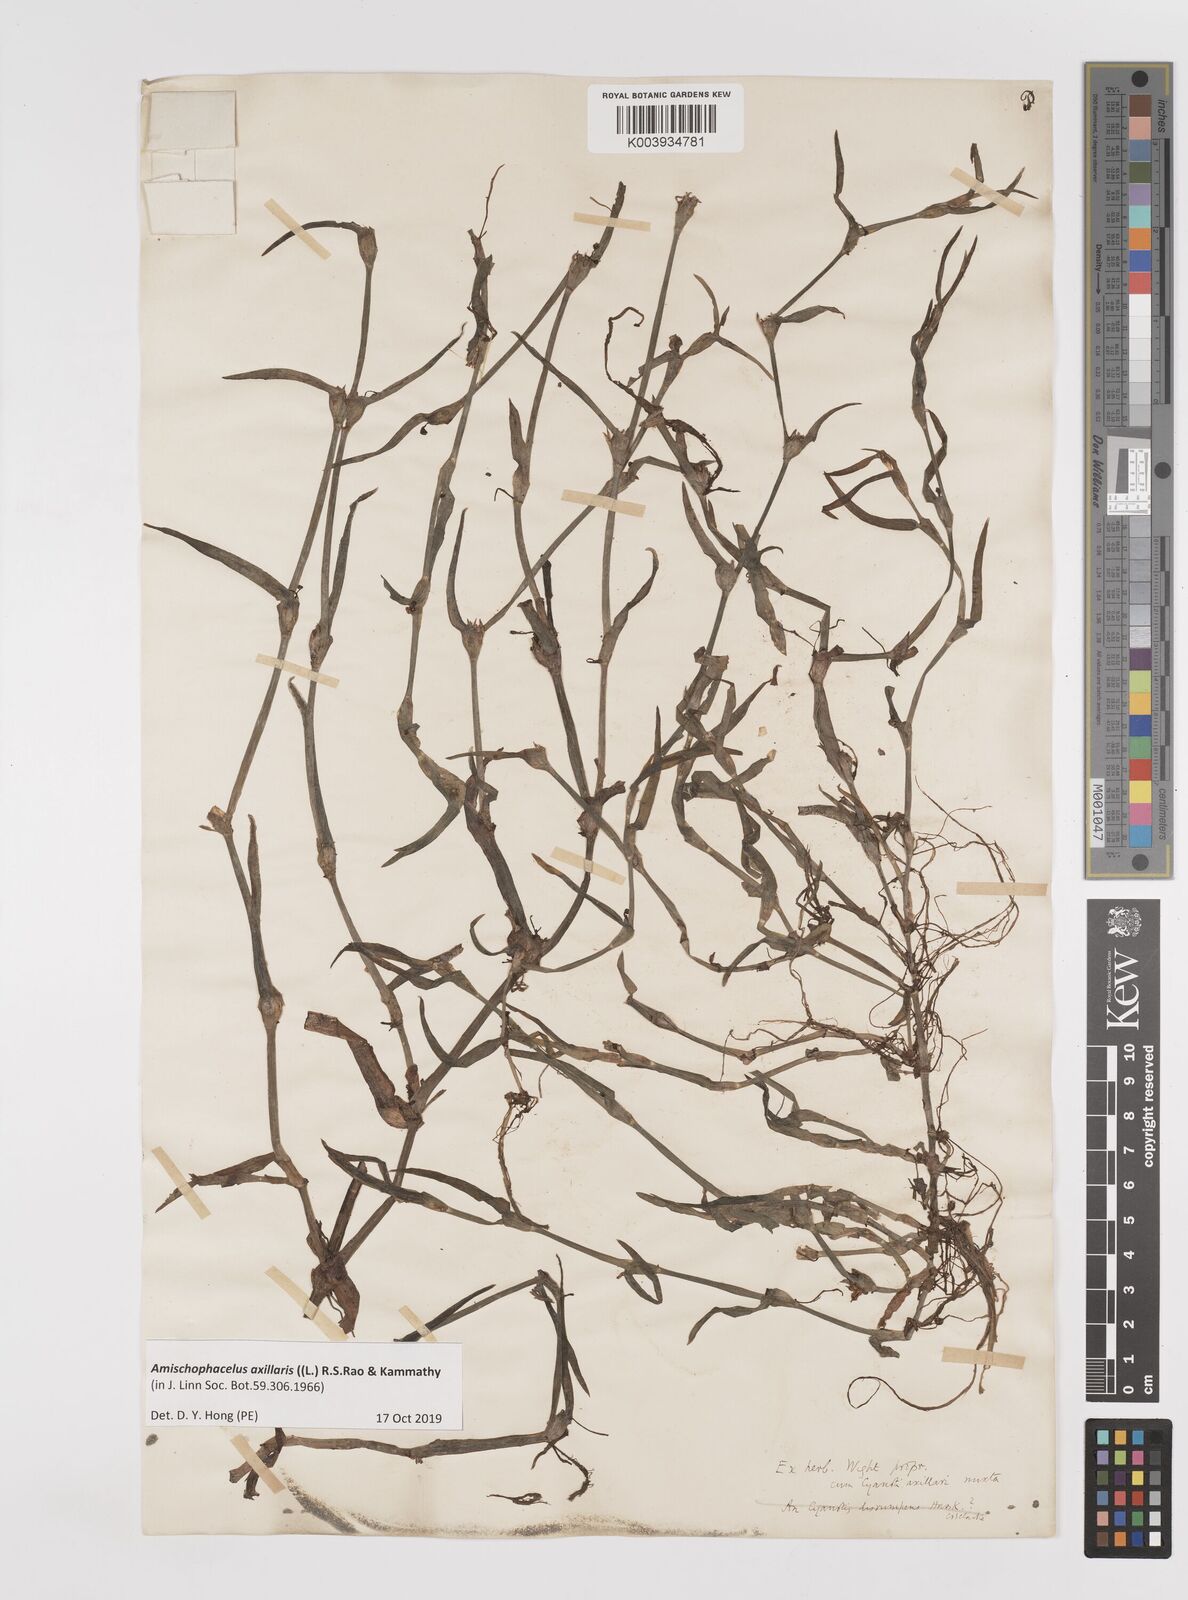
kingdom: Plantae
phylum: Tracheophyta
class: Liliopsida
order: Commelinales
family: Commelinaceae
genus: Cyanotis
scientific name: Cyanotis axillaris
